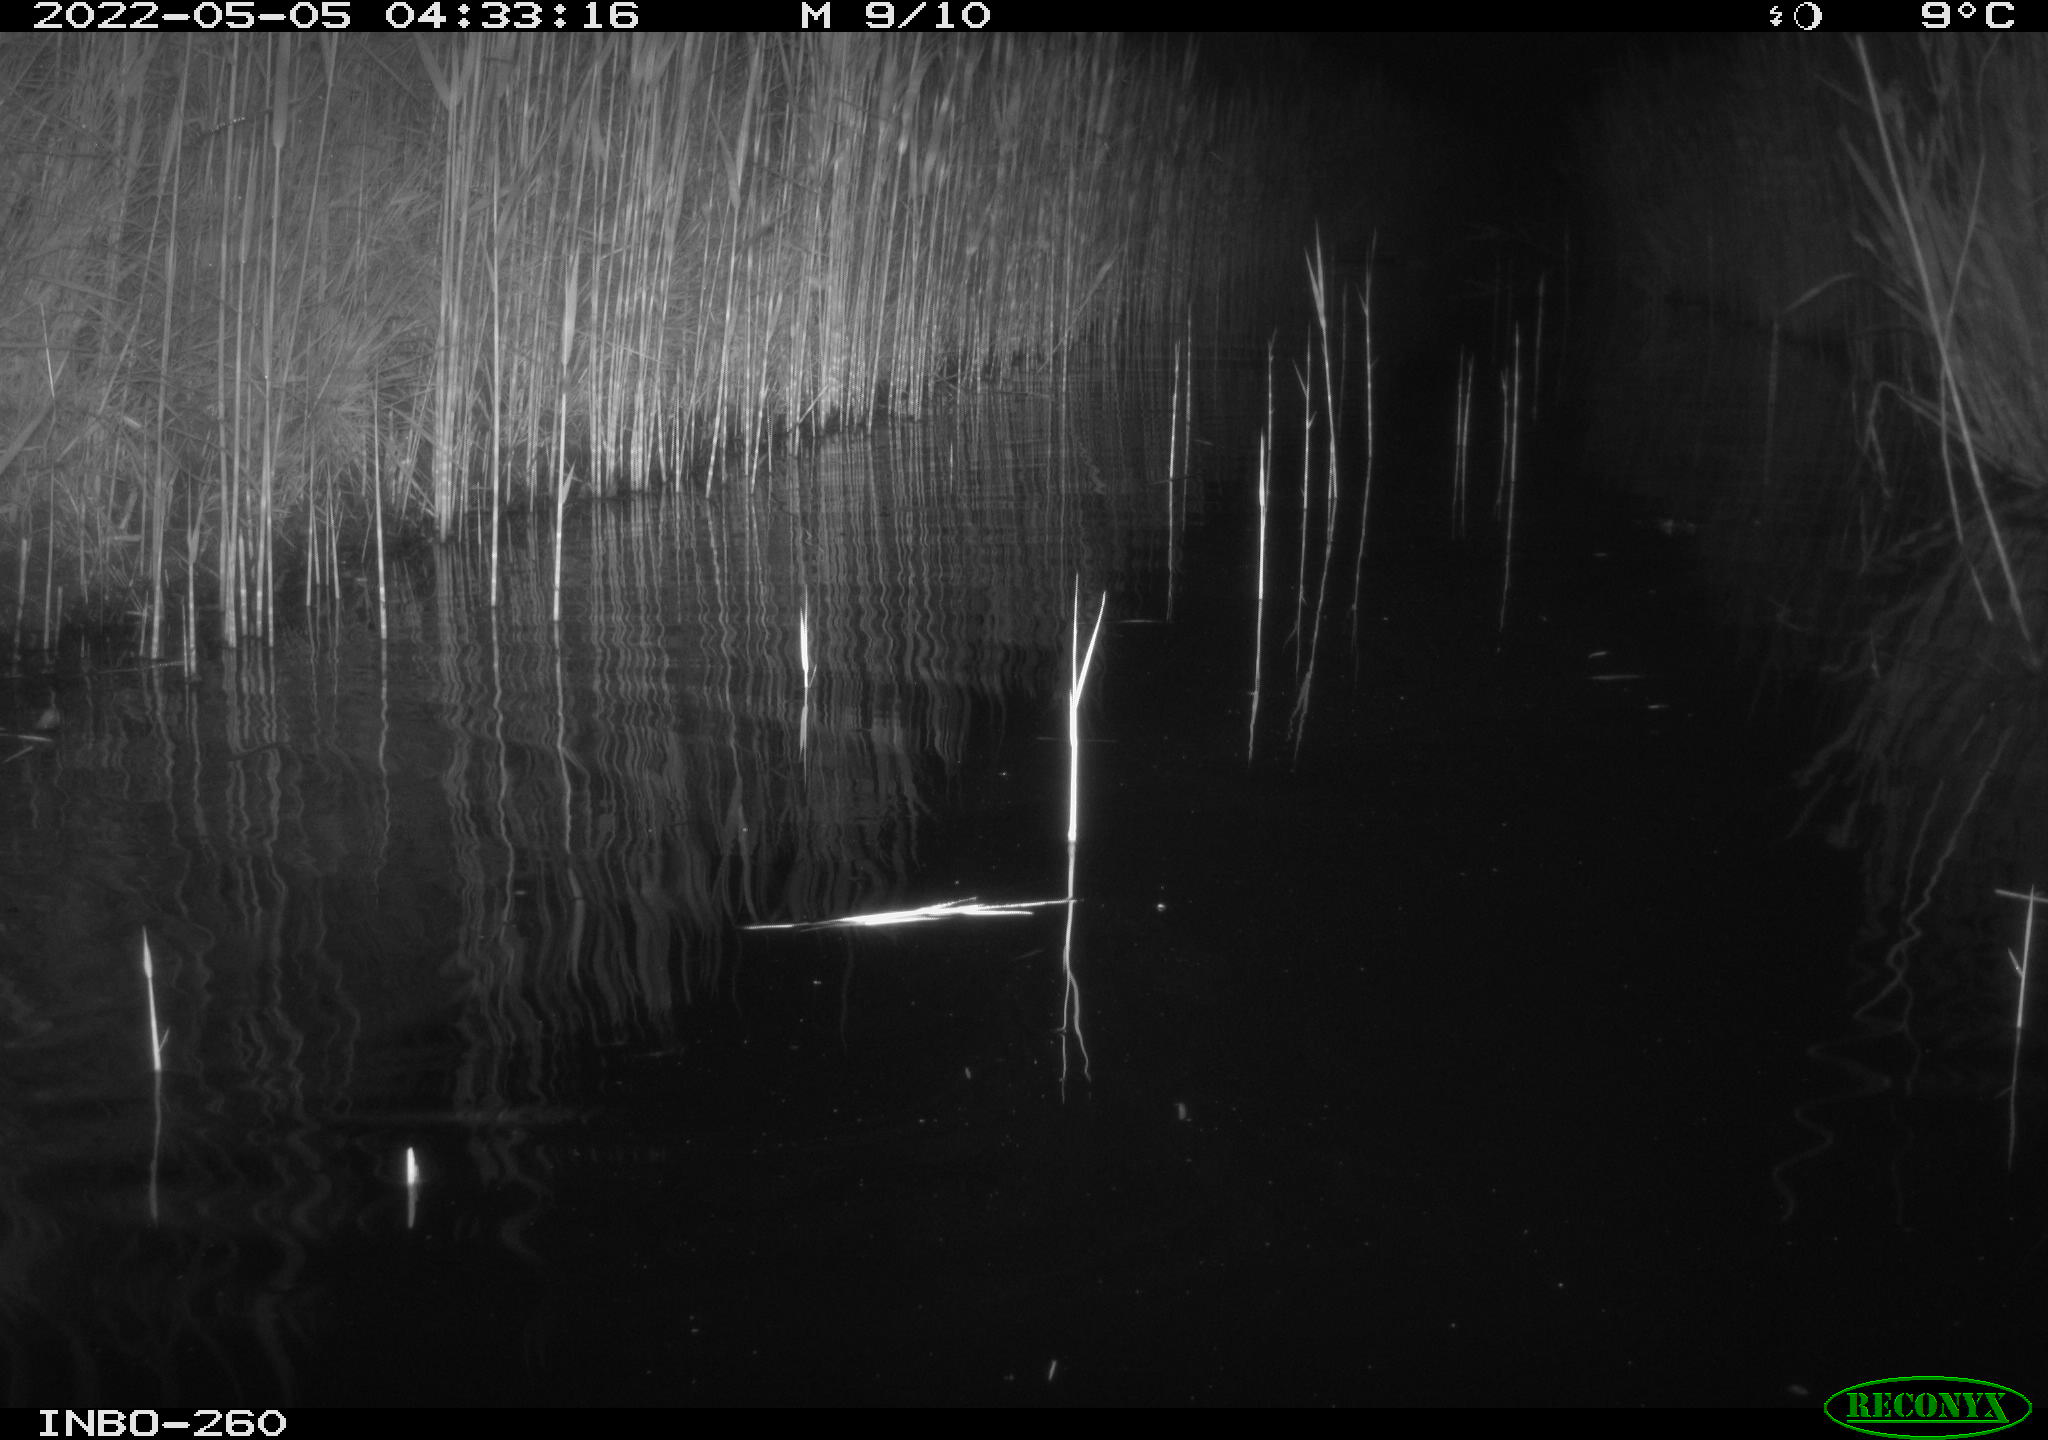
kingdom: Animalia
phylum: Chordata
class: Mammalia
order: Rodentia
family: Muridae
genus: Rattus
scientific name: Rattus norvegicus
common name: Brown rat
